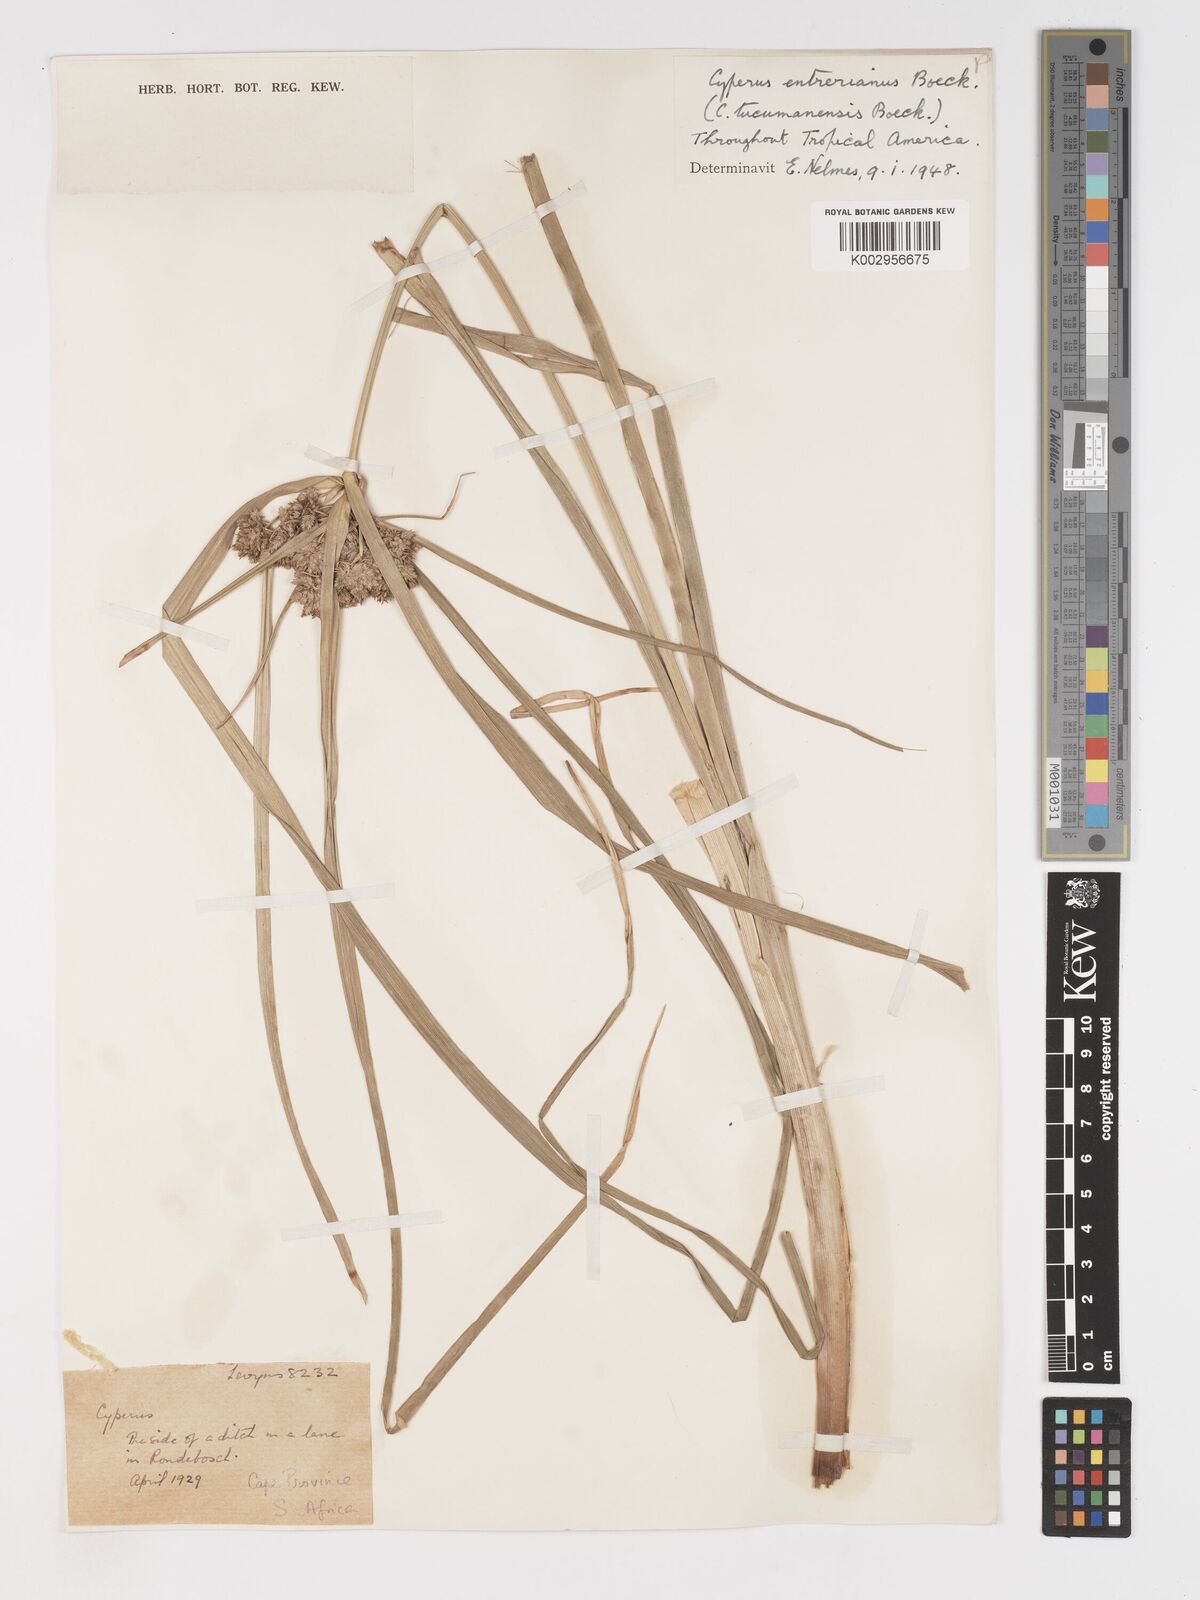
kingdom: Plantae
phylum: Tracheophyta
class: Liliopsida
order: Poales
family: Cyperaceae
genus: Cyperus
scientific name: Cyperus eragrostis
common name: Tall flatsedge
